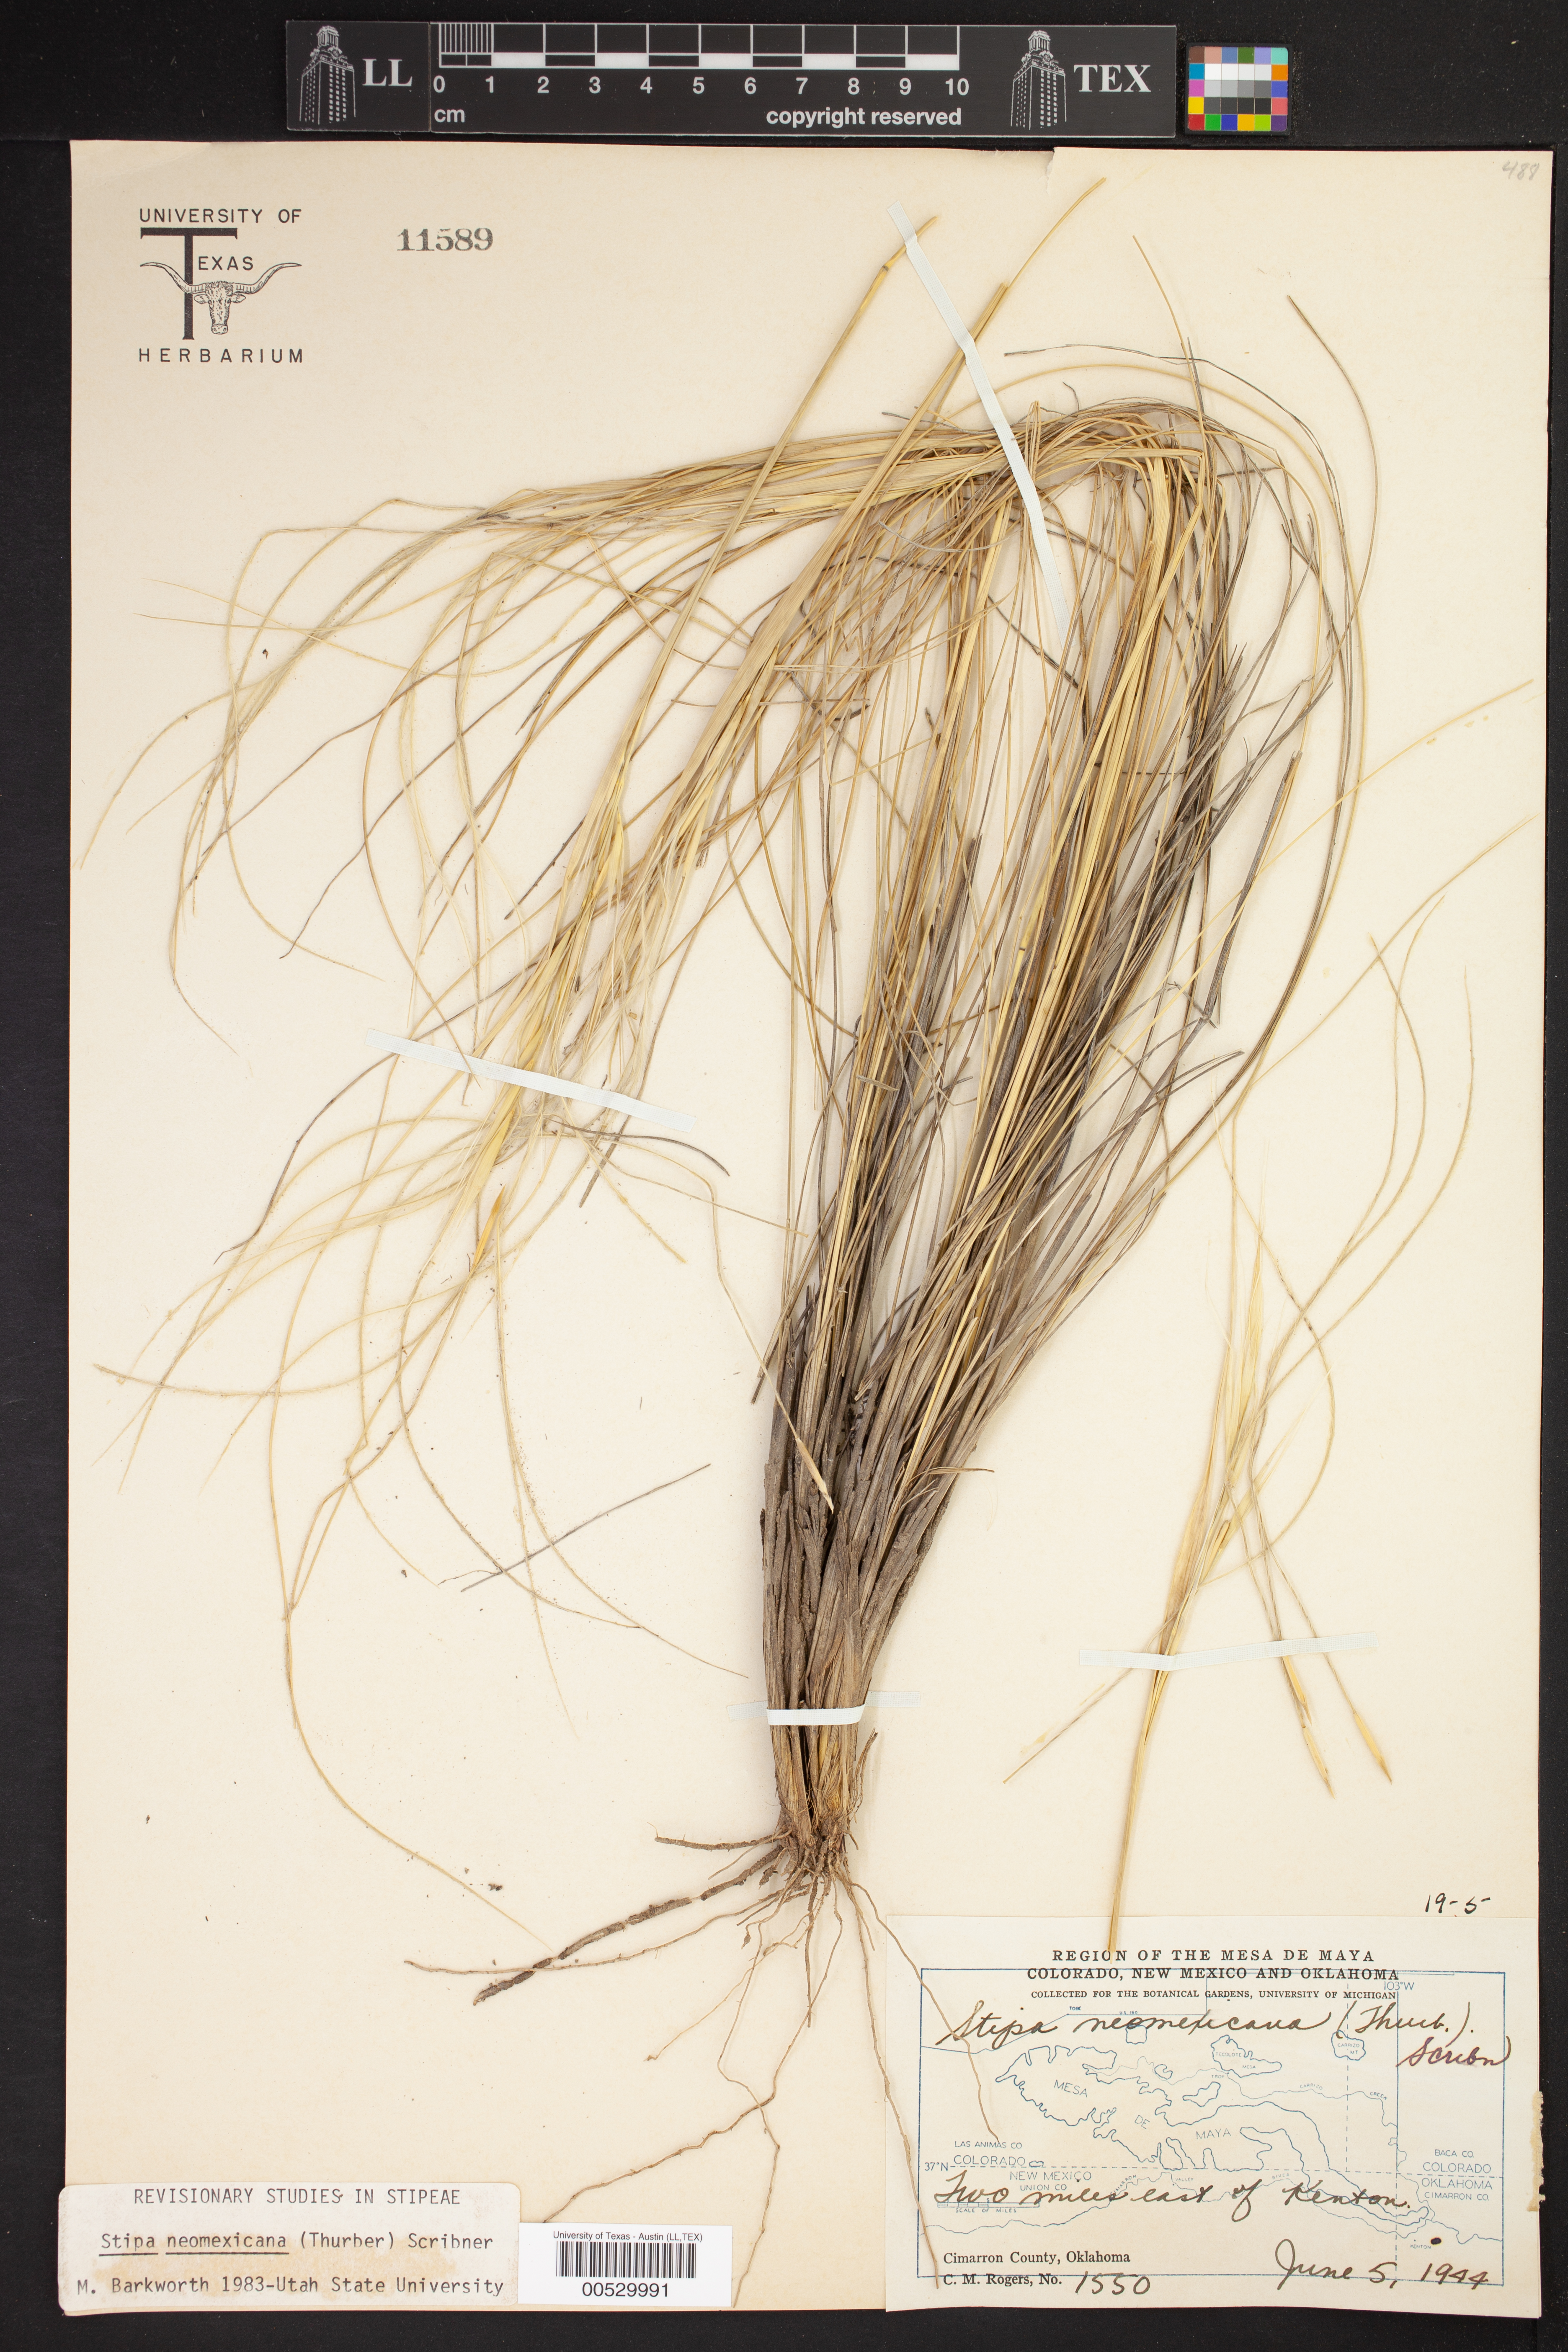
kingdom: Plantae
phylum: Tracheophyta
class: Liliopsida
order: Poales
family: Poaceae
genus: Hesperostipa
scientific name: Hesperostipa neomexicana
